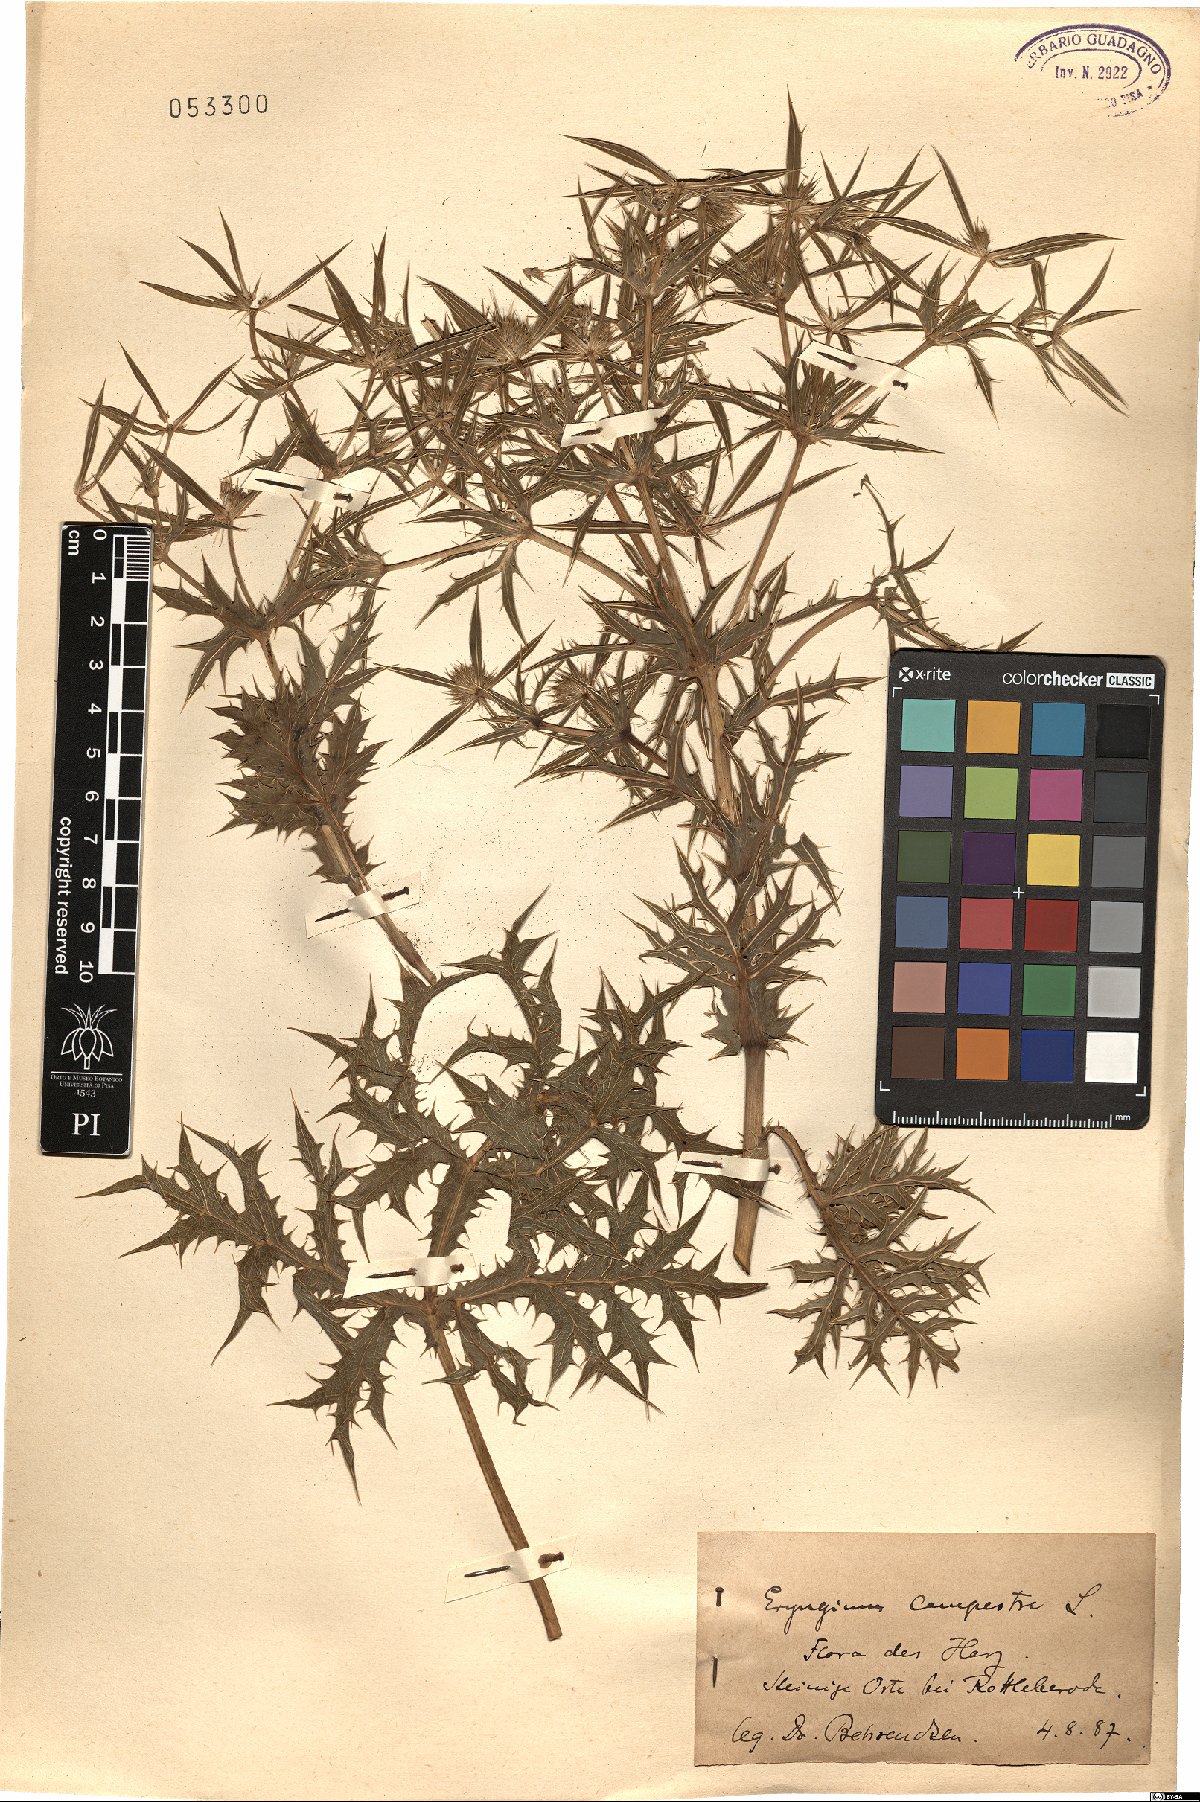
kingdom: Plantae
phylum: Tracheophyta
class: Magnoliopsida
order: Apiales
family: Apiaceae
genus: Eryngium
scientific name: Eryngium campestre
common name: Field eryngo
